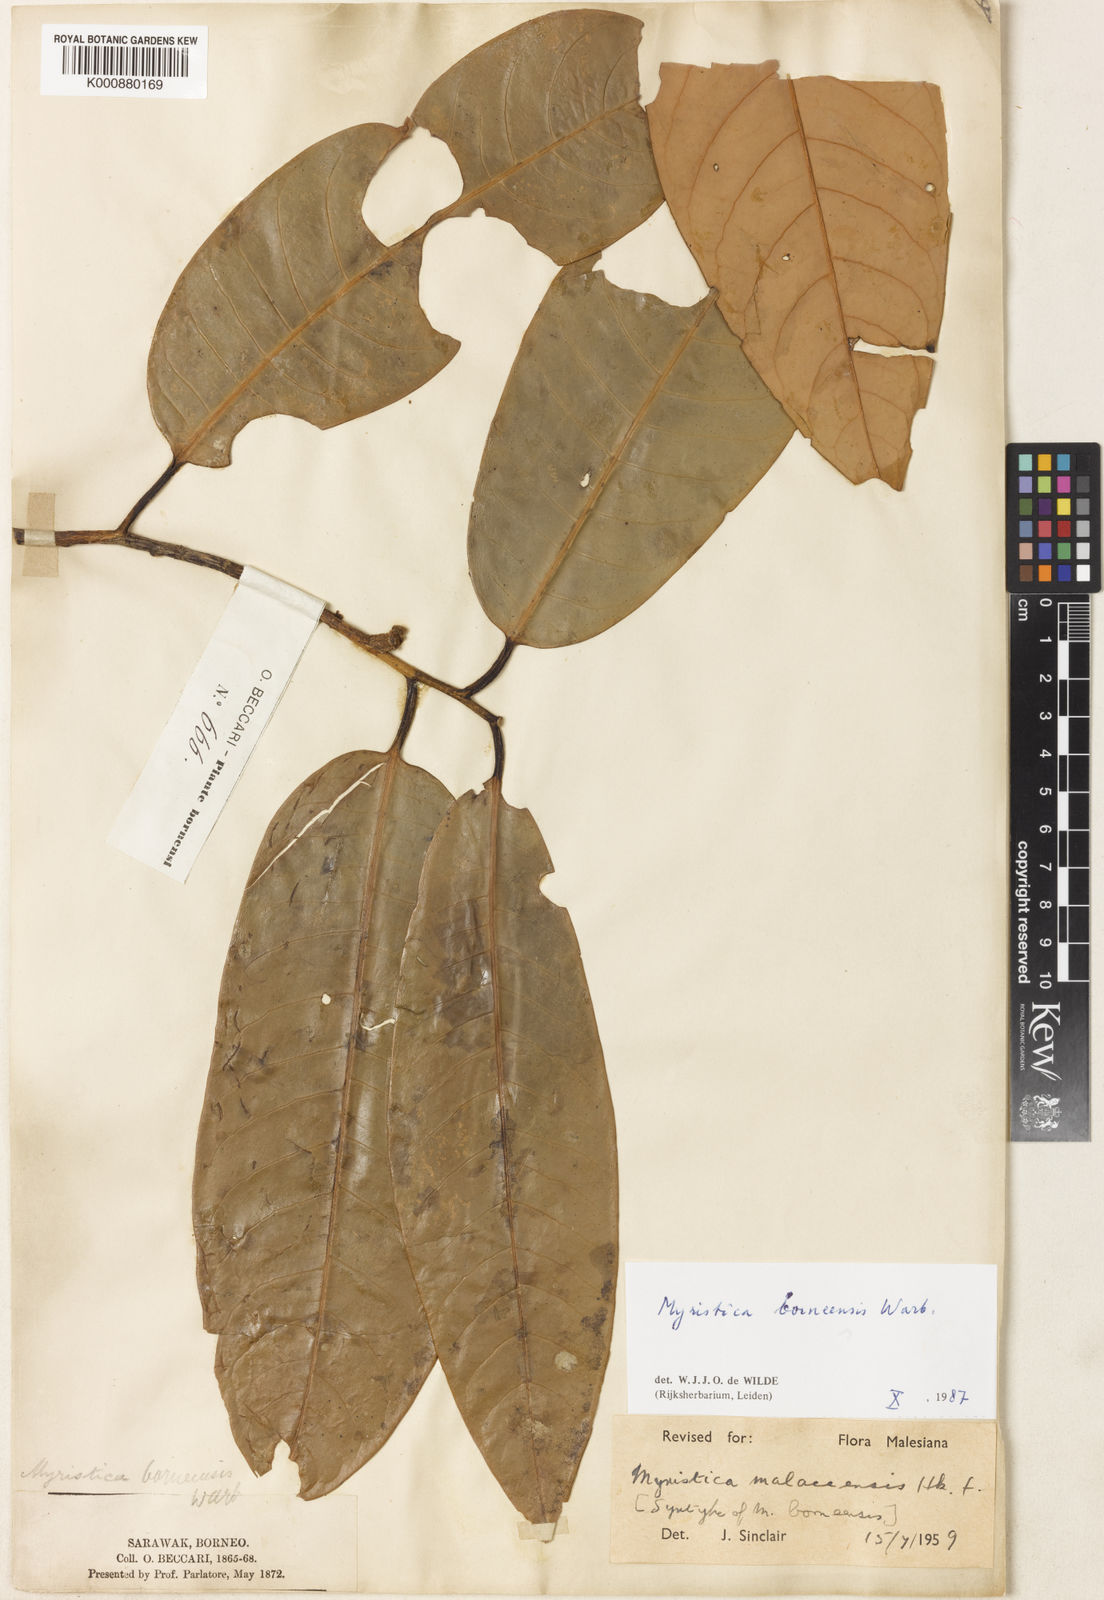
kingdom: Plantae
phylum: Tracheophyta
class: Magnoliopsida
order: Magnoliales
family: Myristicaceae
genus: Myristica
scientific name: Myristica malaccensis
